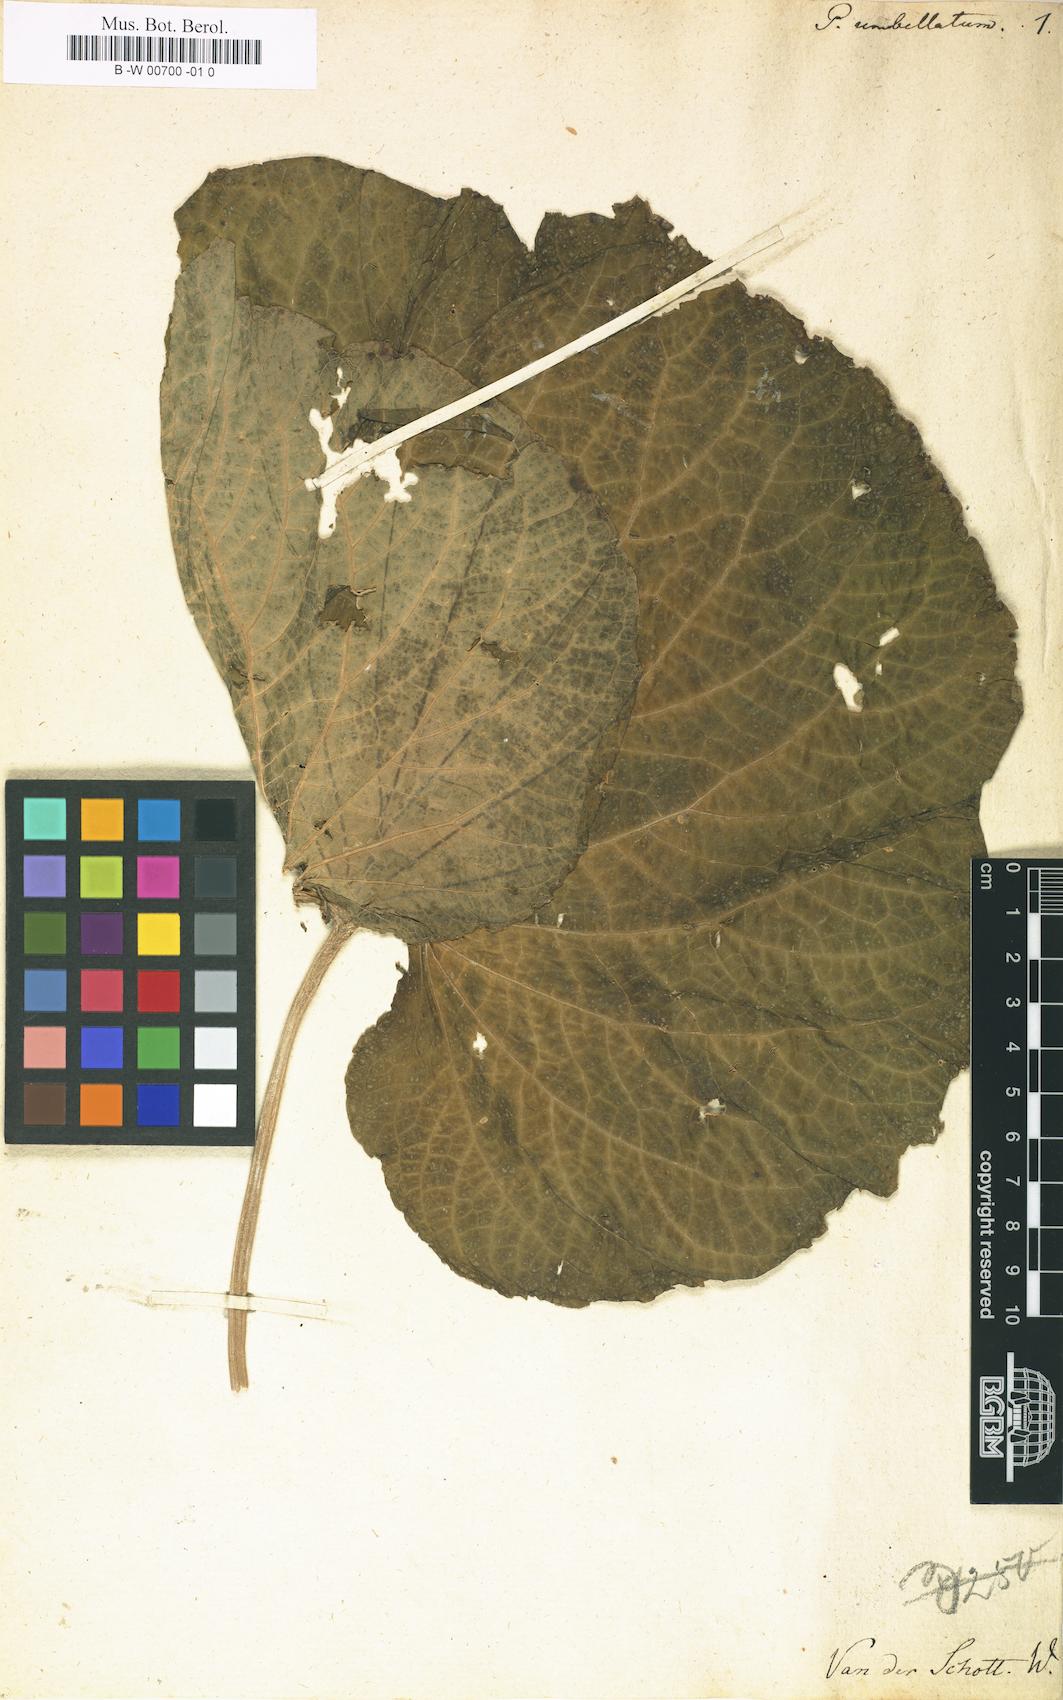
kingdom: Plantae
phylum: Tracheophyta
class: Magnoliopsida
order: Piperales
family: Piperaceae
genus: Piper
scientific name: Piper umbellatum
